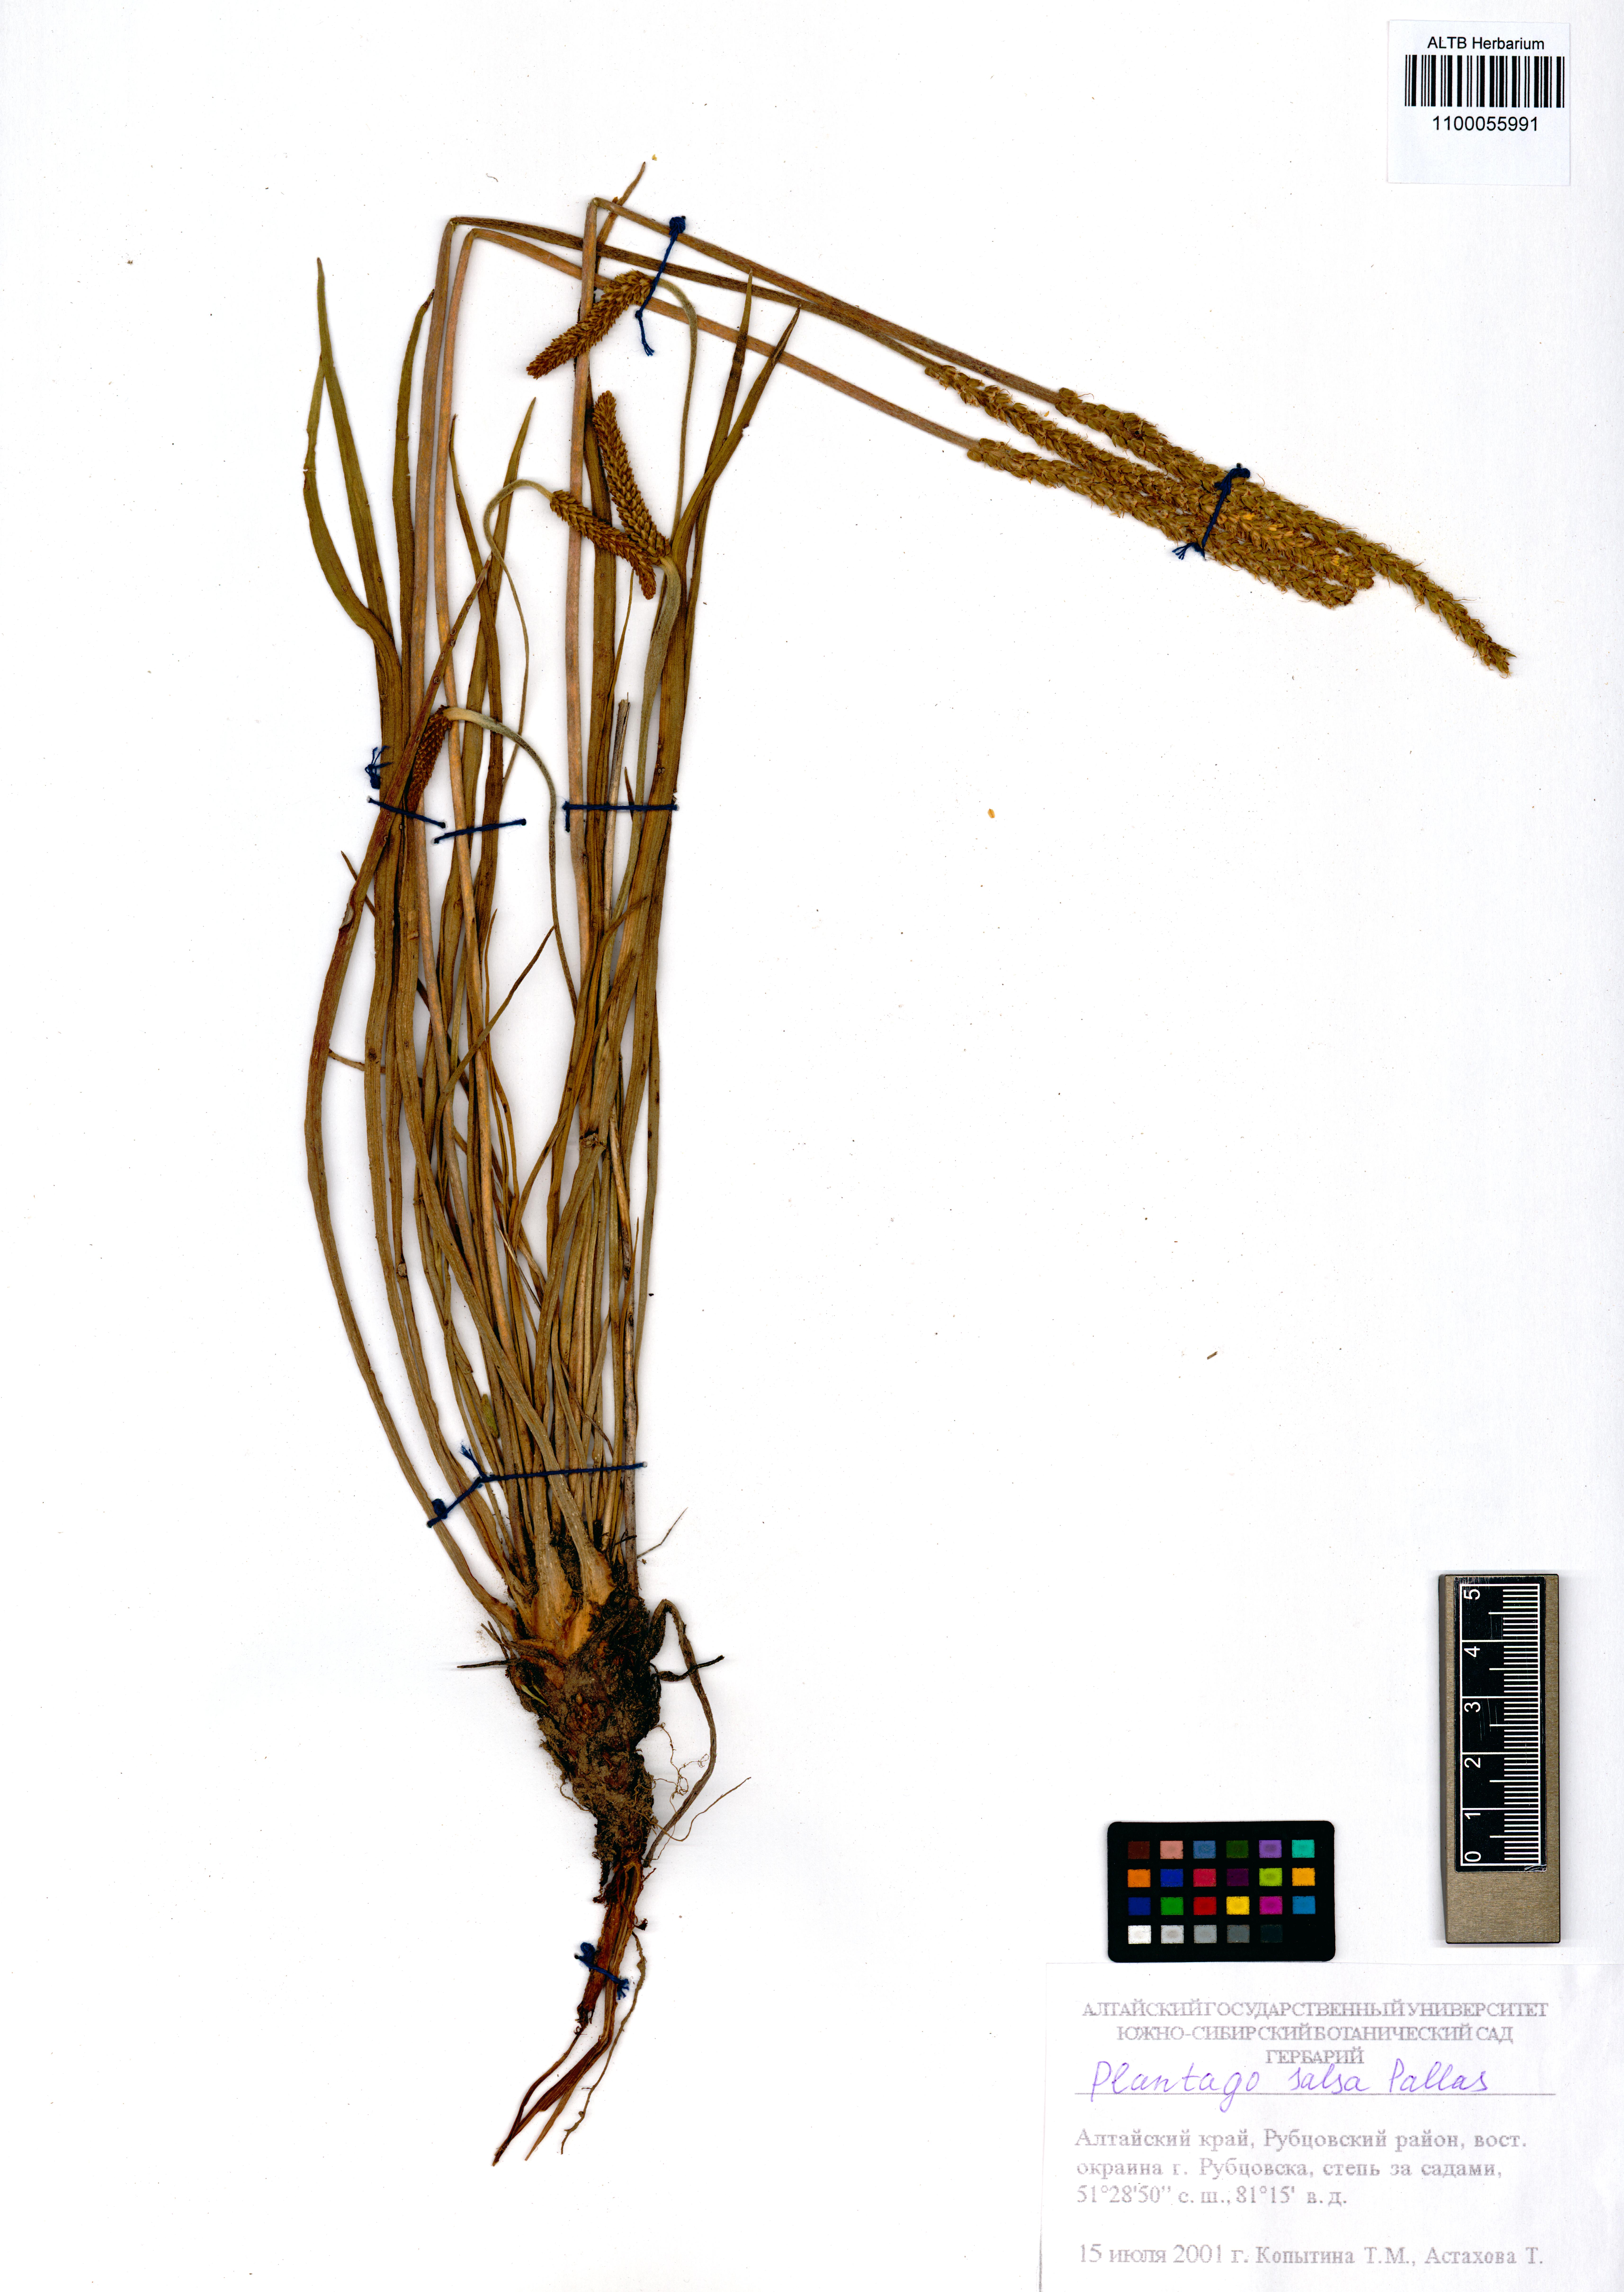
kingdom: Plantae
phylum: Tracheophyta
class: Magnoliopsida
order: Lamiales
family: Plantaginaceae
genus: Plantago
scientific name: Plantago salsa
